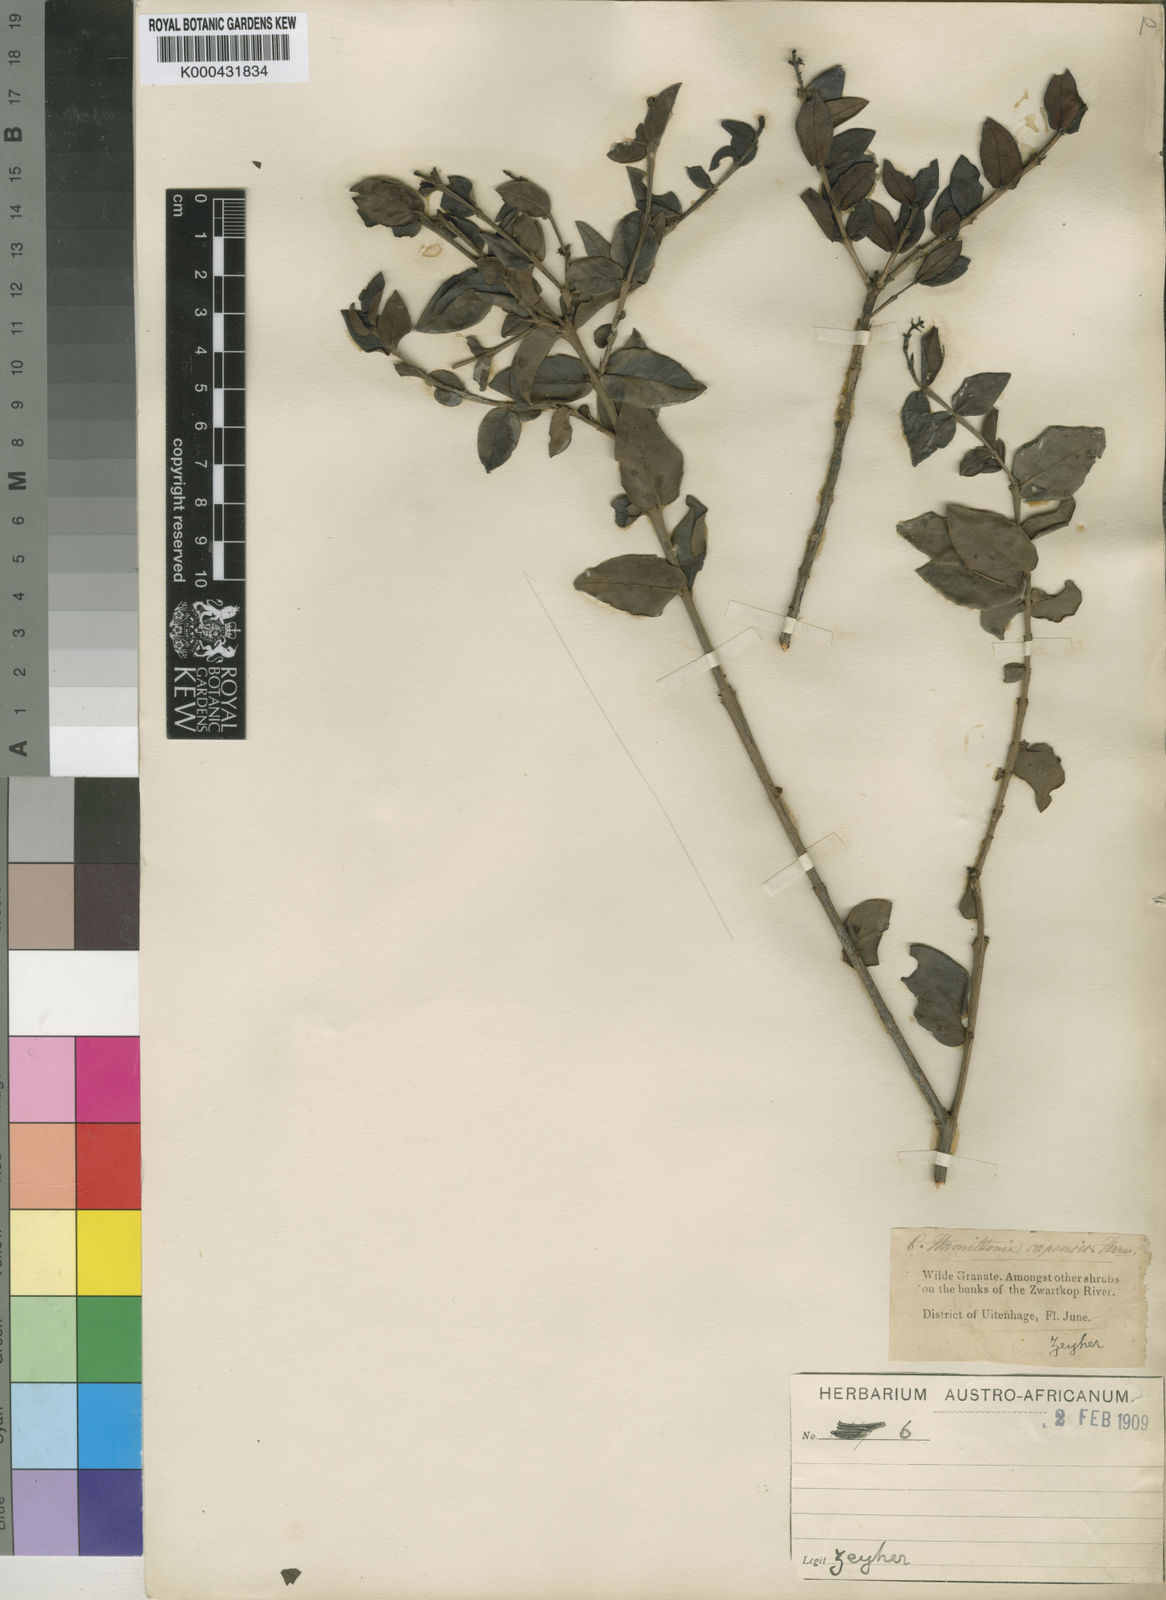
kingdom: Plantae
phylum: Tracheophyta
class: Magnoliopsida
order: Santalales
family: Santalaceae
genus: Rhoiacarpos
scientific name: Rhoiacarpos capensis
